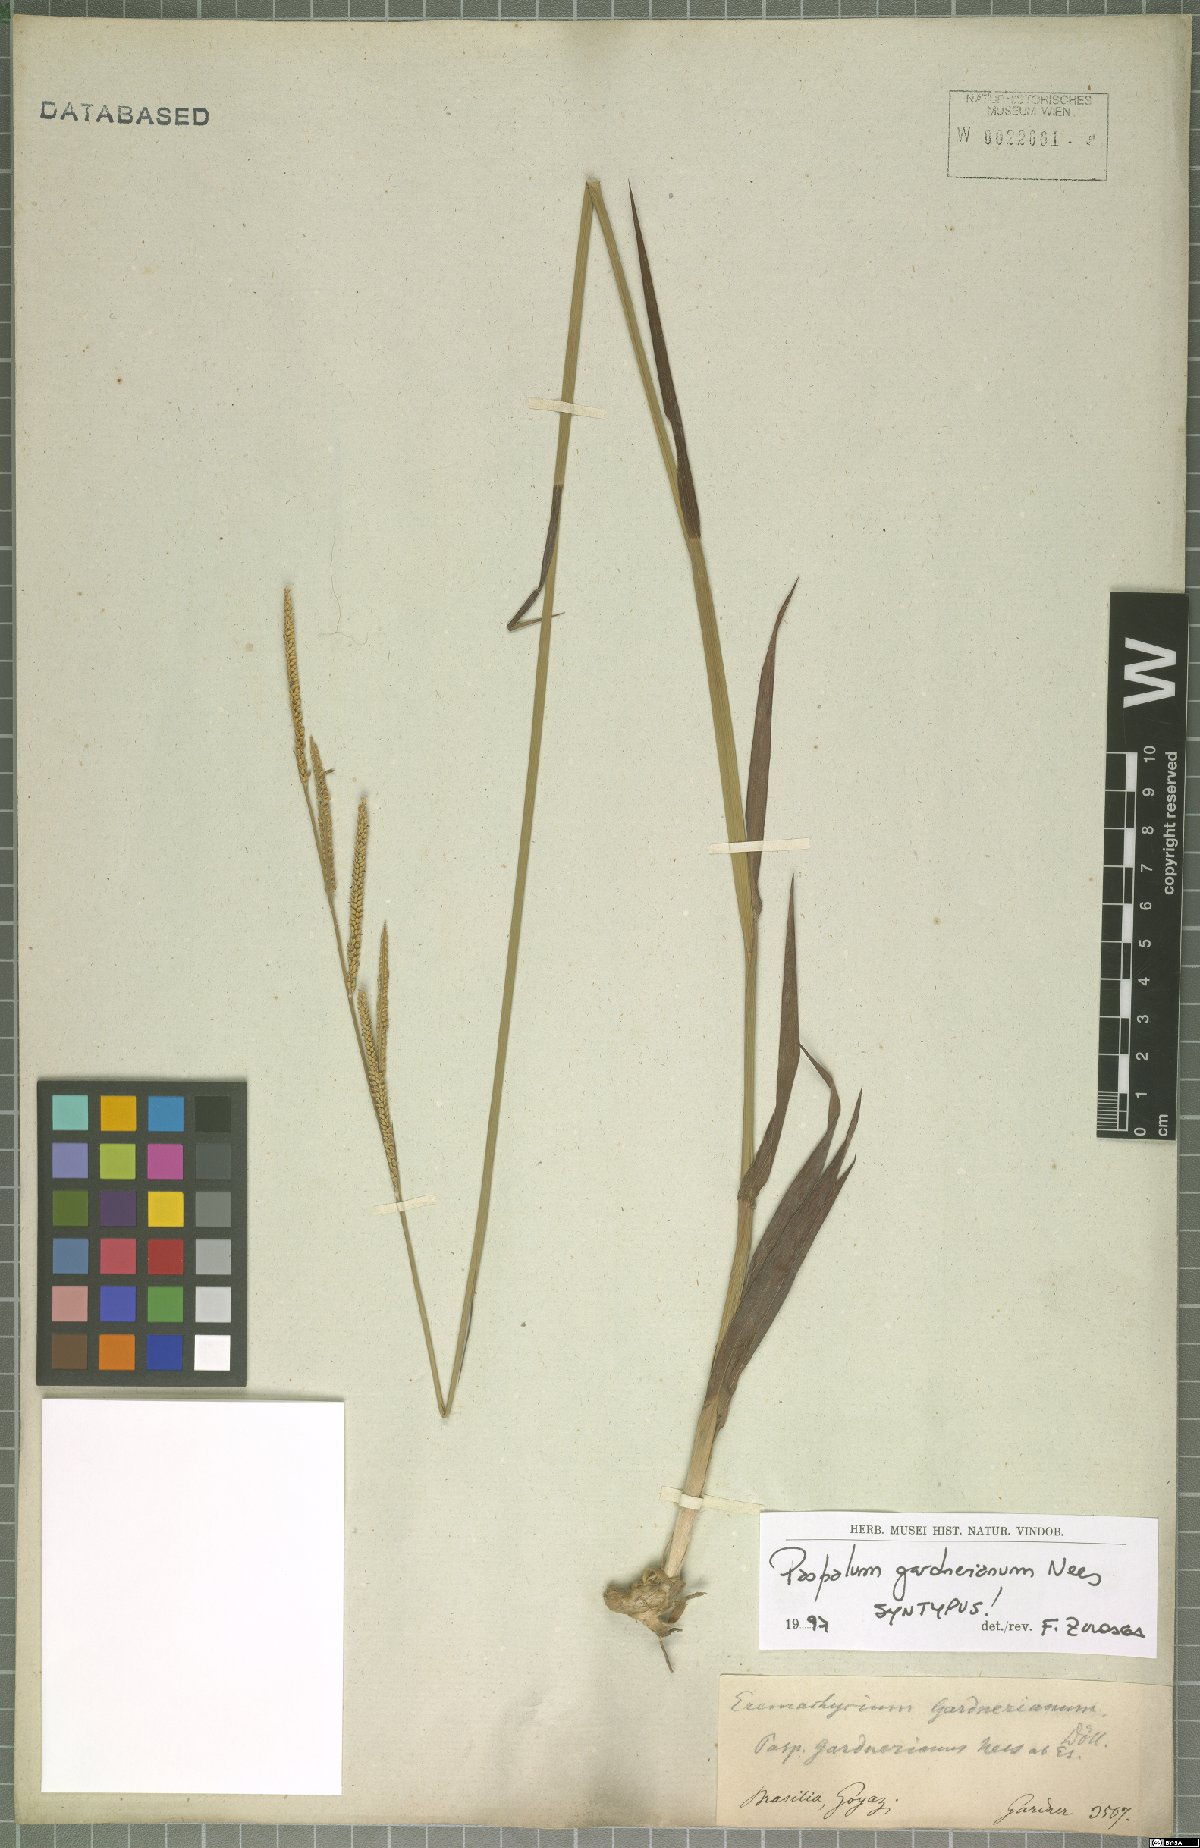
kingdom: Plantae
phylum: Tracheophyta
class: Liliopsida
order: Poales
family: Poaceae
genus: Paspalum
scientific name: Paspalum gardnerianum
